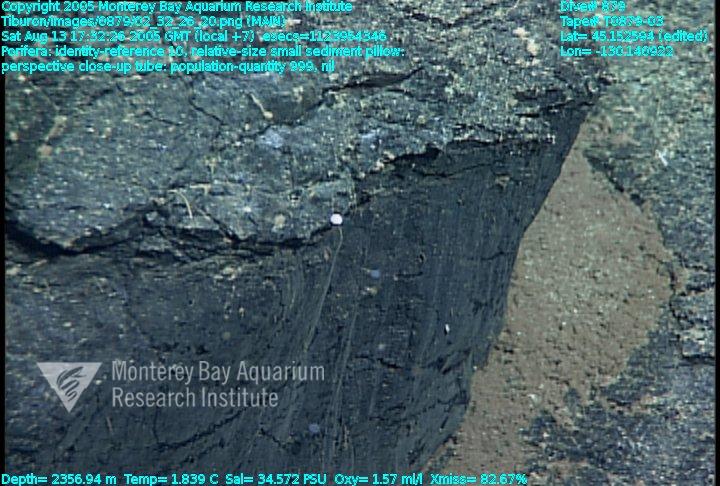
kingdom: Animalia
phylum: Porifera
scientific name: Porifera
